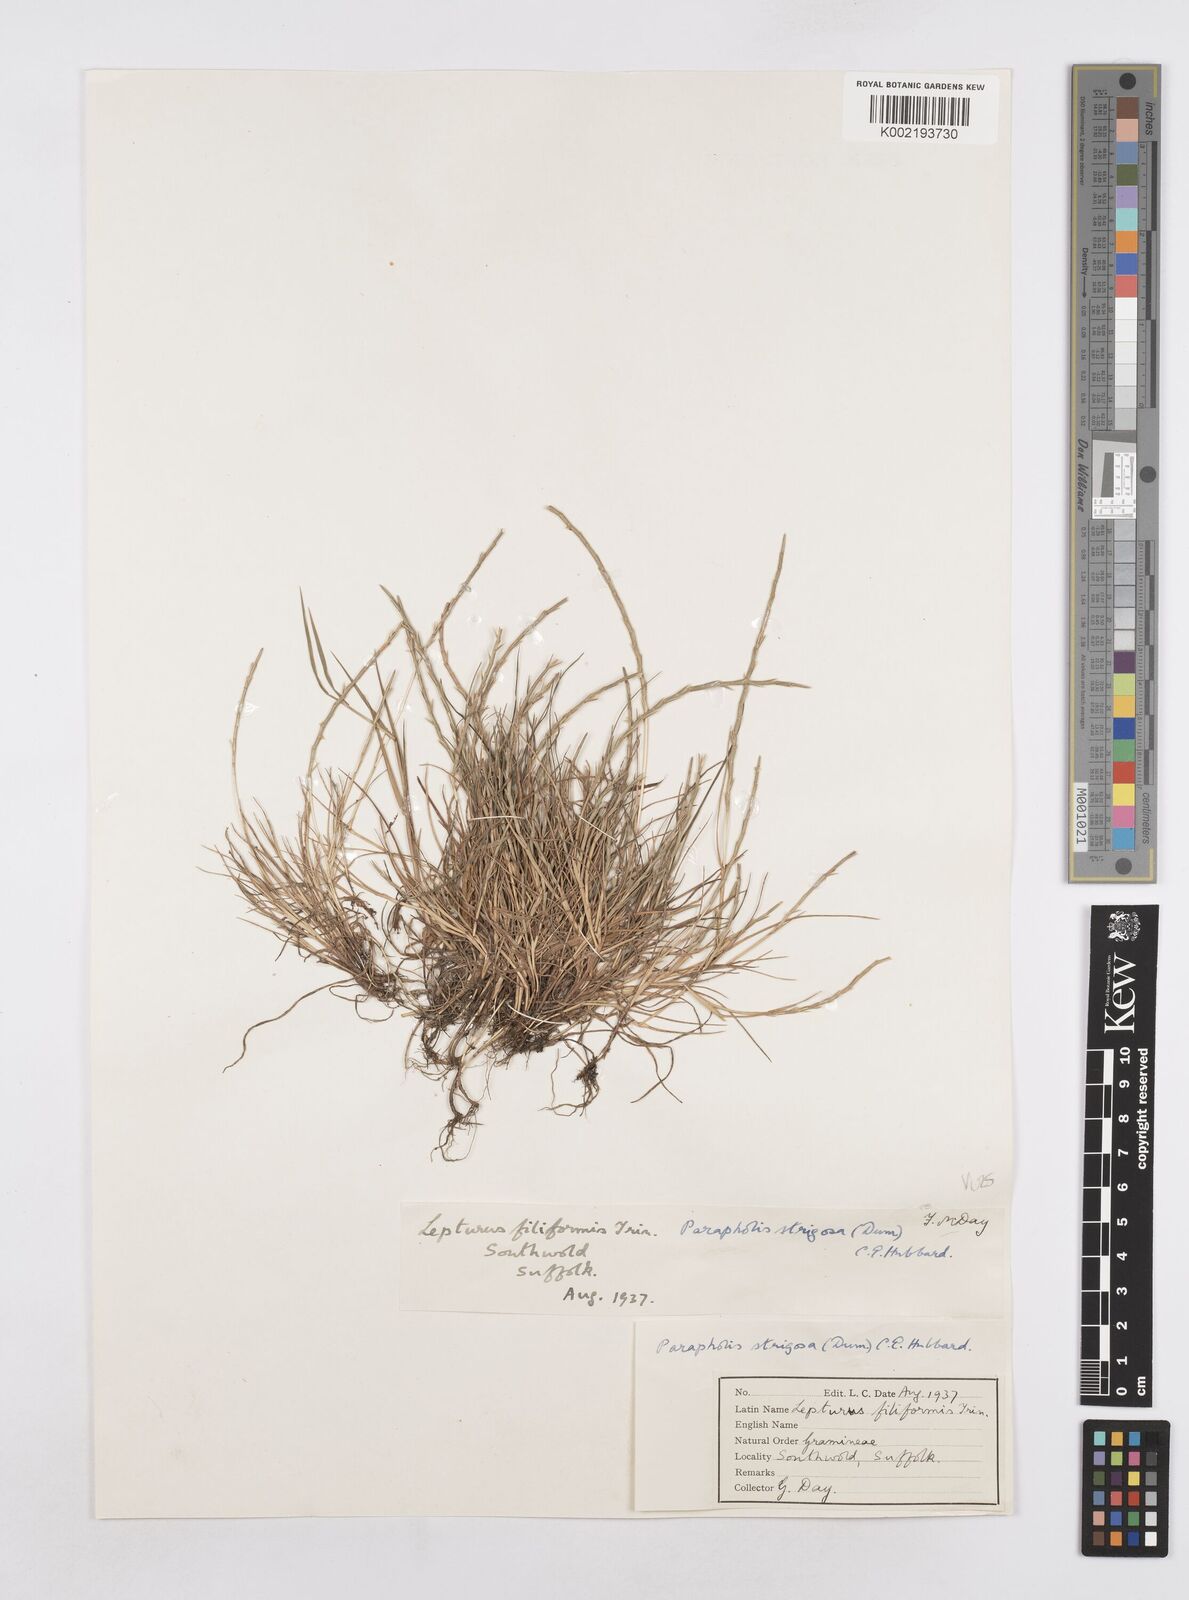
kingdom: Plantae
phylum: Tracheophyta
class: Liliopsida
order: Poales
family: Poaceae
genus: Parapholis
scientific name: Parapholis strigosa
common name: Hard-grass
